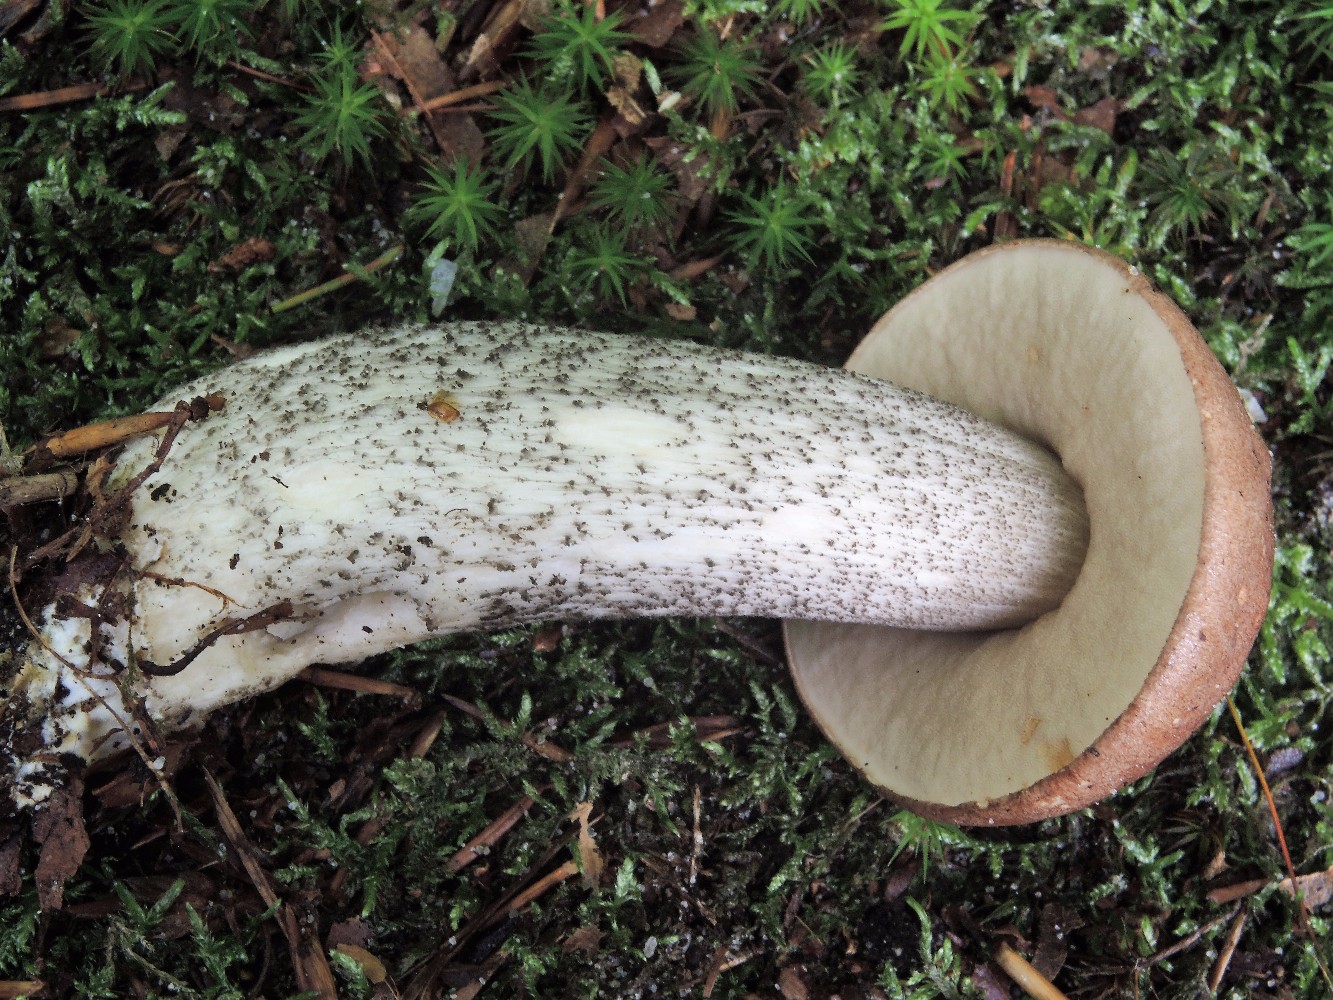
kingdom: Fungi
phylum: Basidiomycota
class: Agaricomycetes
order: Boletales
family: Boletaceae
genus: Leccinum
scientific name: Leccinum scabrum
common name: brun skælrørhat
